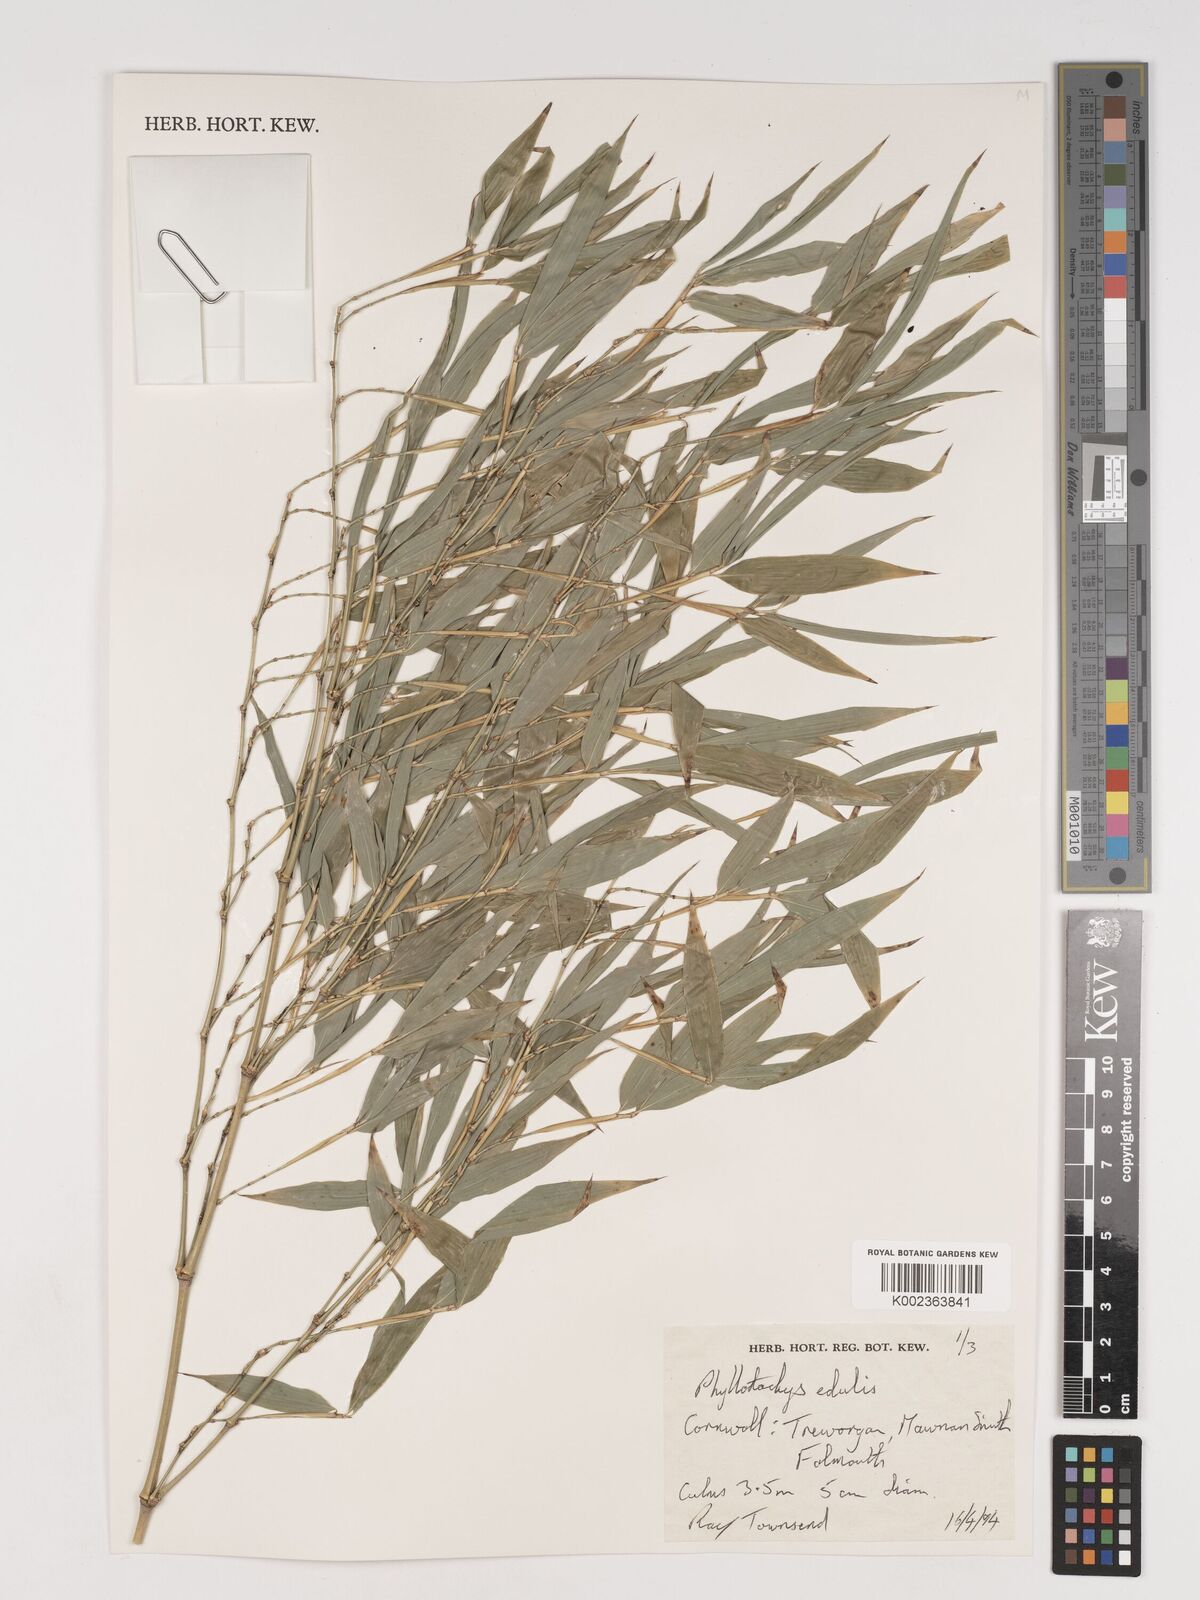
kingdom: Plantae
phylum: Tracheophyta
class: Liliopsida
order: Poales
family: Poaceae
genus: Phyllostachys
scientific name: Phyllostachys edulis
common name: Tortoise shell bamboo
